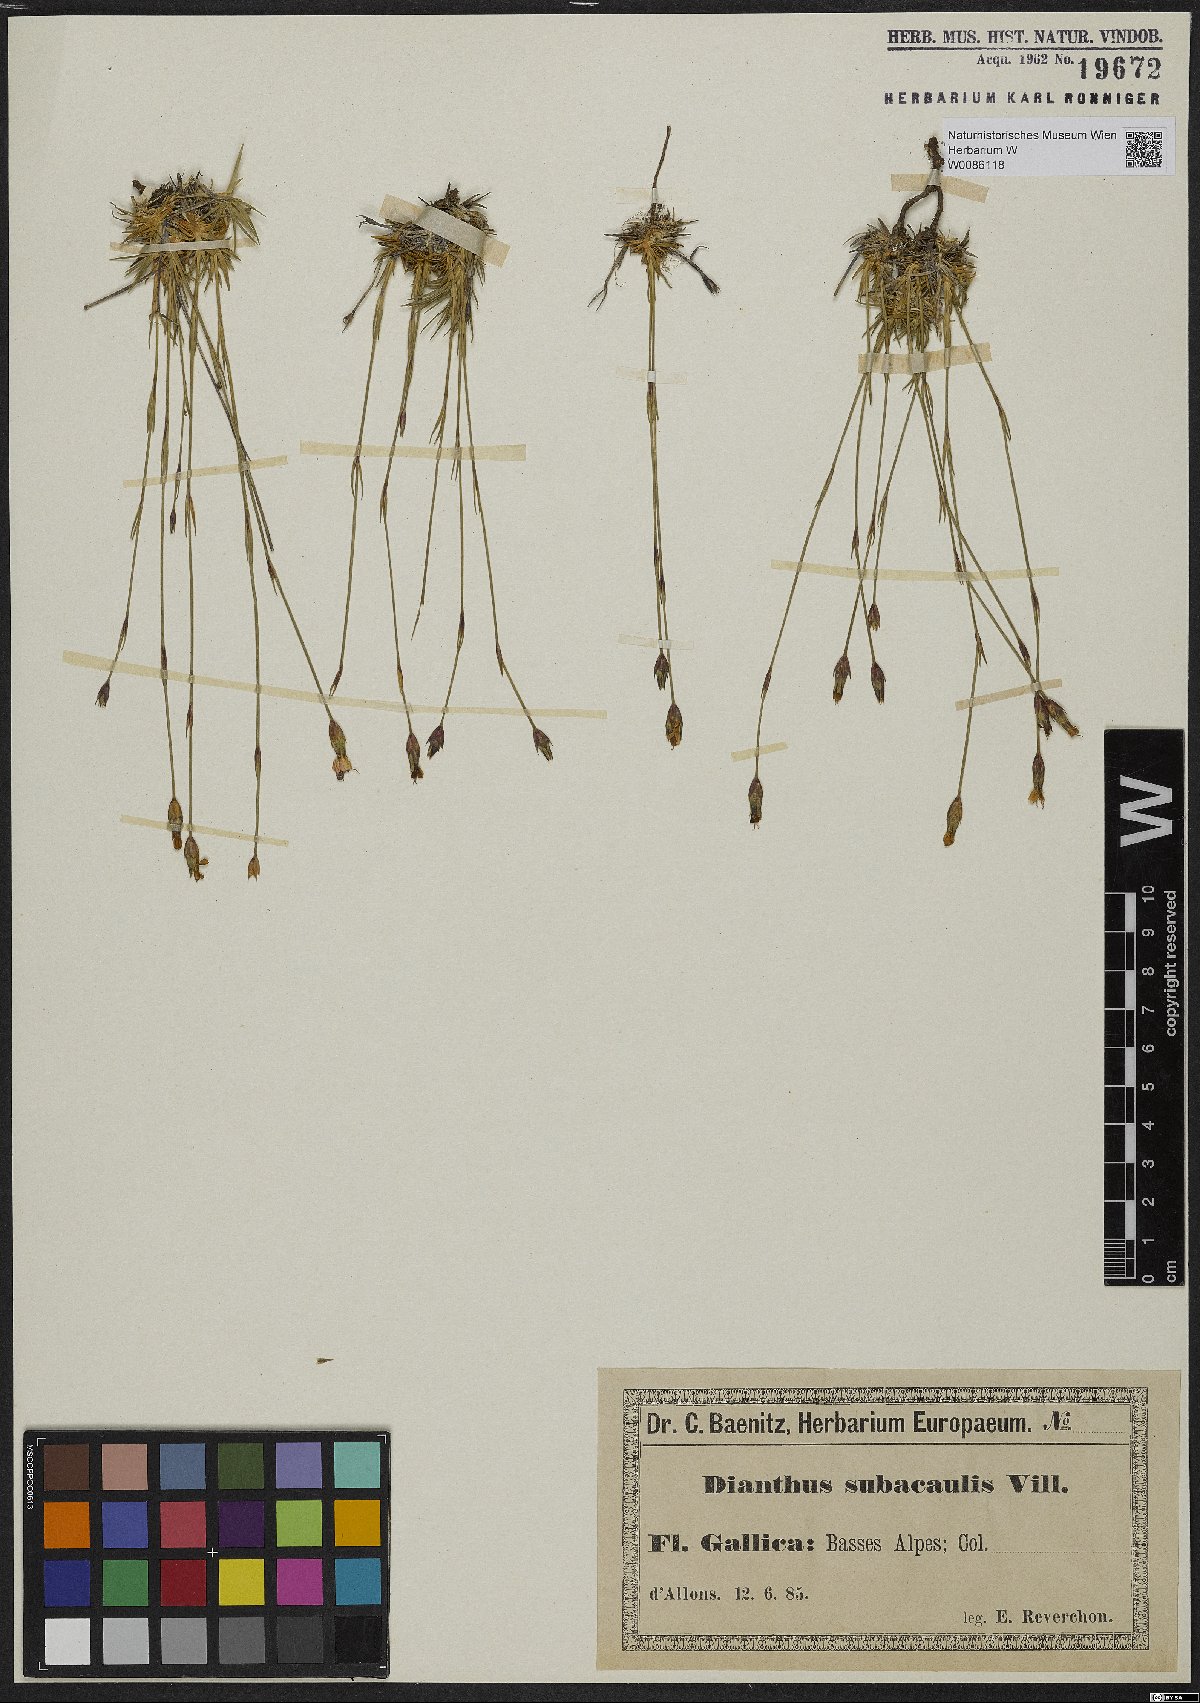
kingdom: Plantae
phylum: Tracheophyta
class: Magnoliopsida
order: Caryophyllales
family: Caryophyllaceae
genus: Dianthus
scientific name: Dianthus pungens
